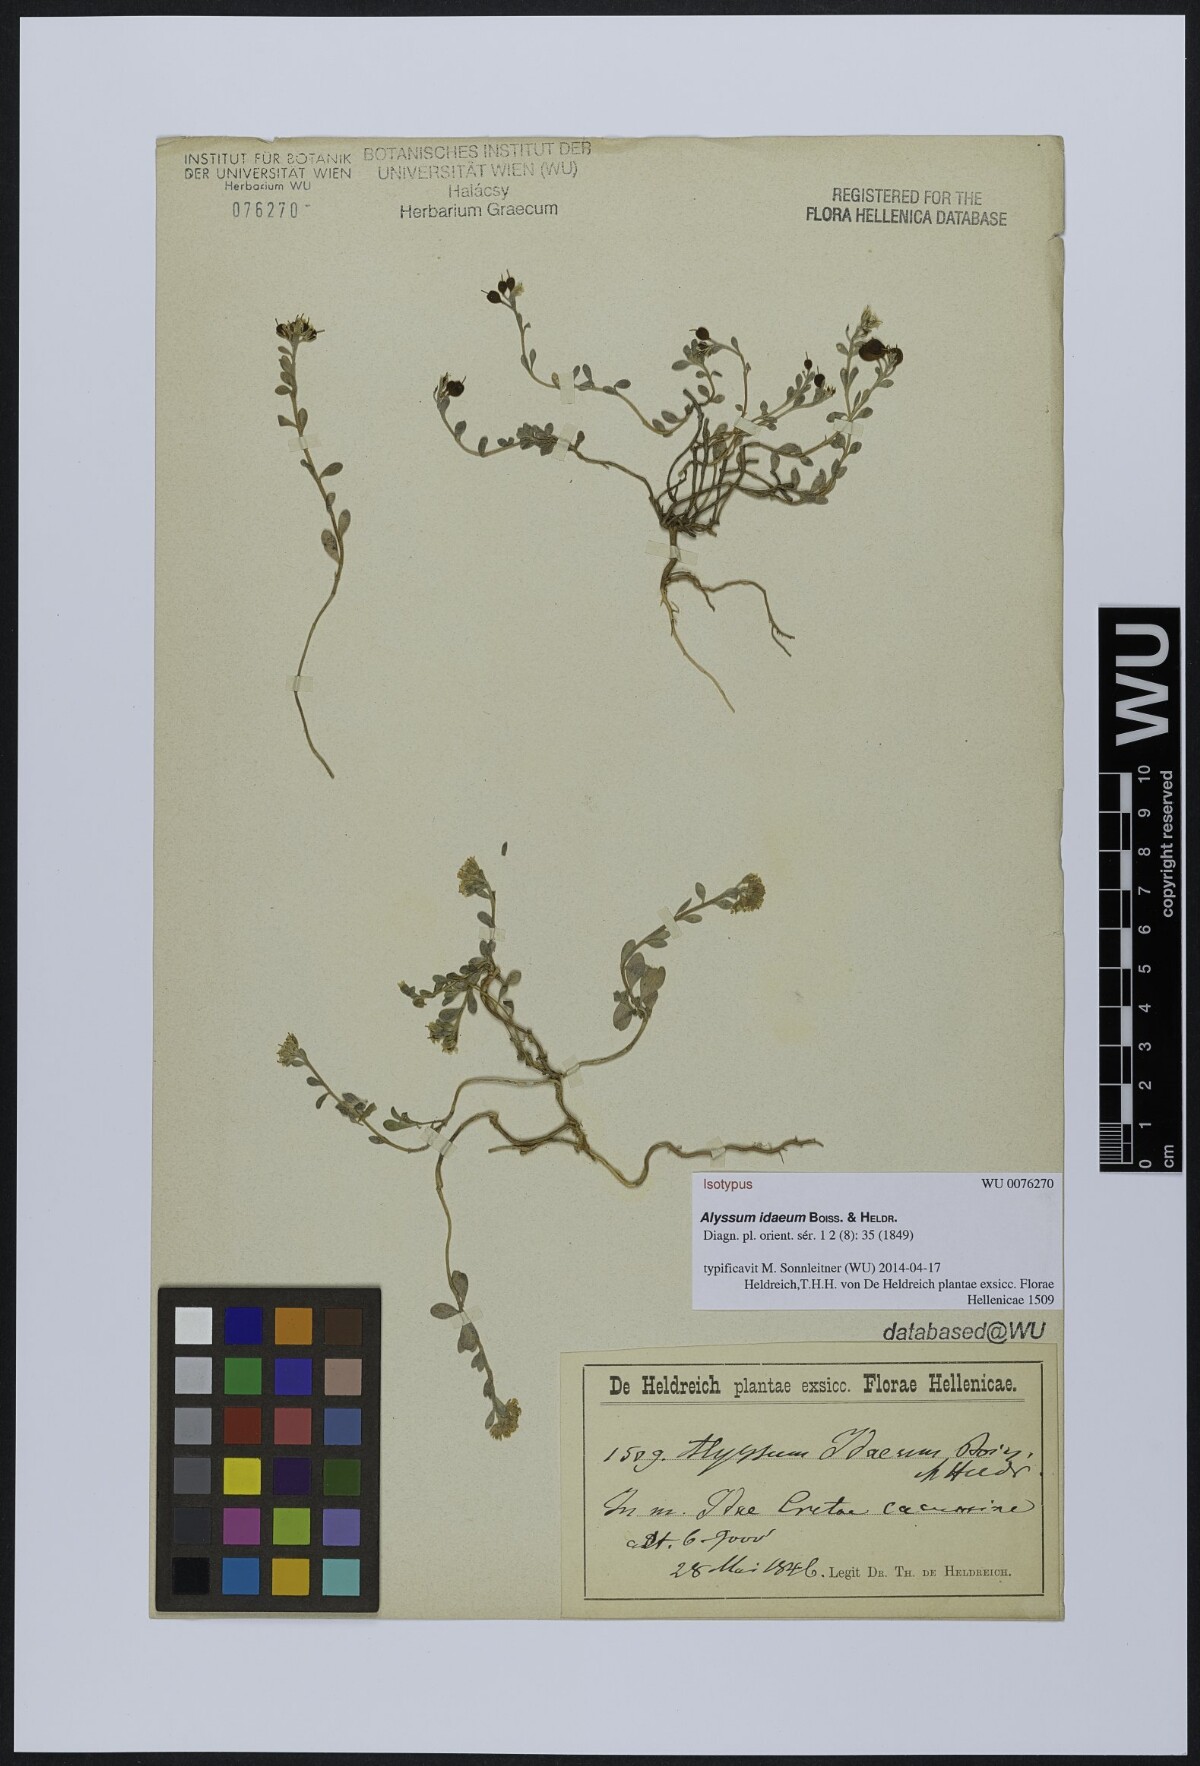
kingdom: Plantae
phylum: Tracheophyta
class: Magnoliopsida
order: Brassicales
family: Brassicaceae
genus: Alyssum
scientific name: Alyssum idaeum
